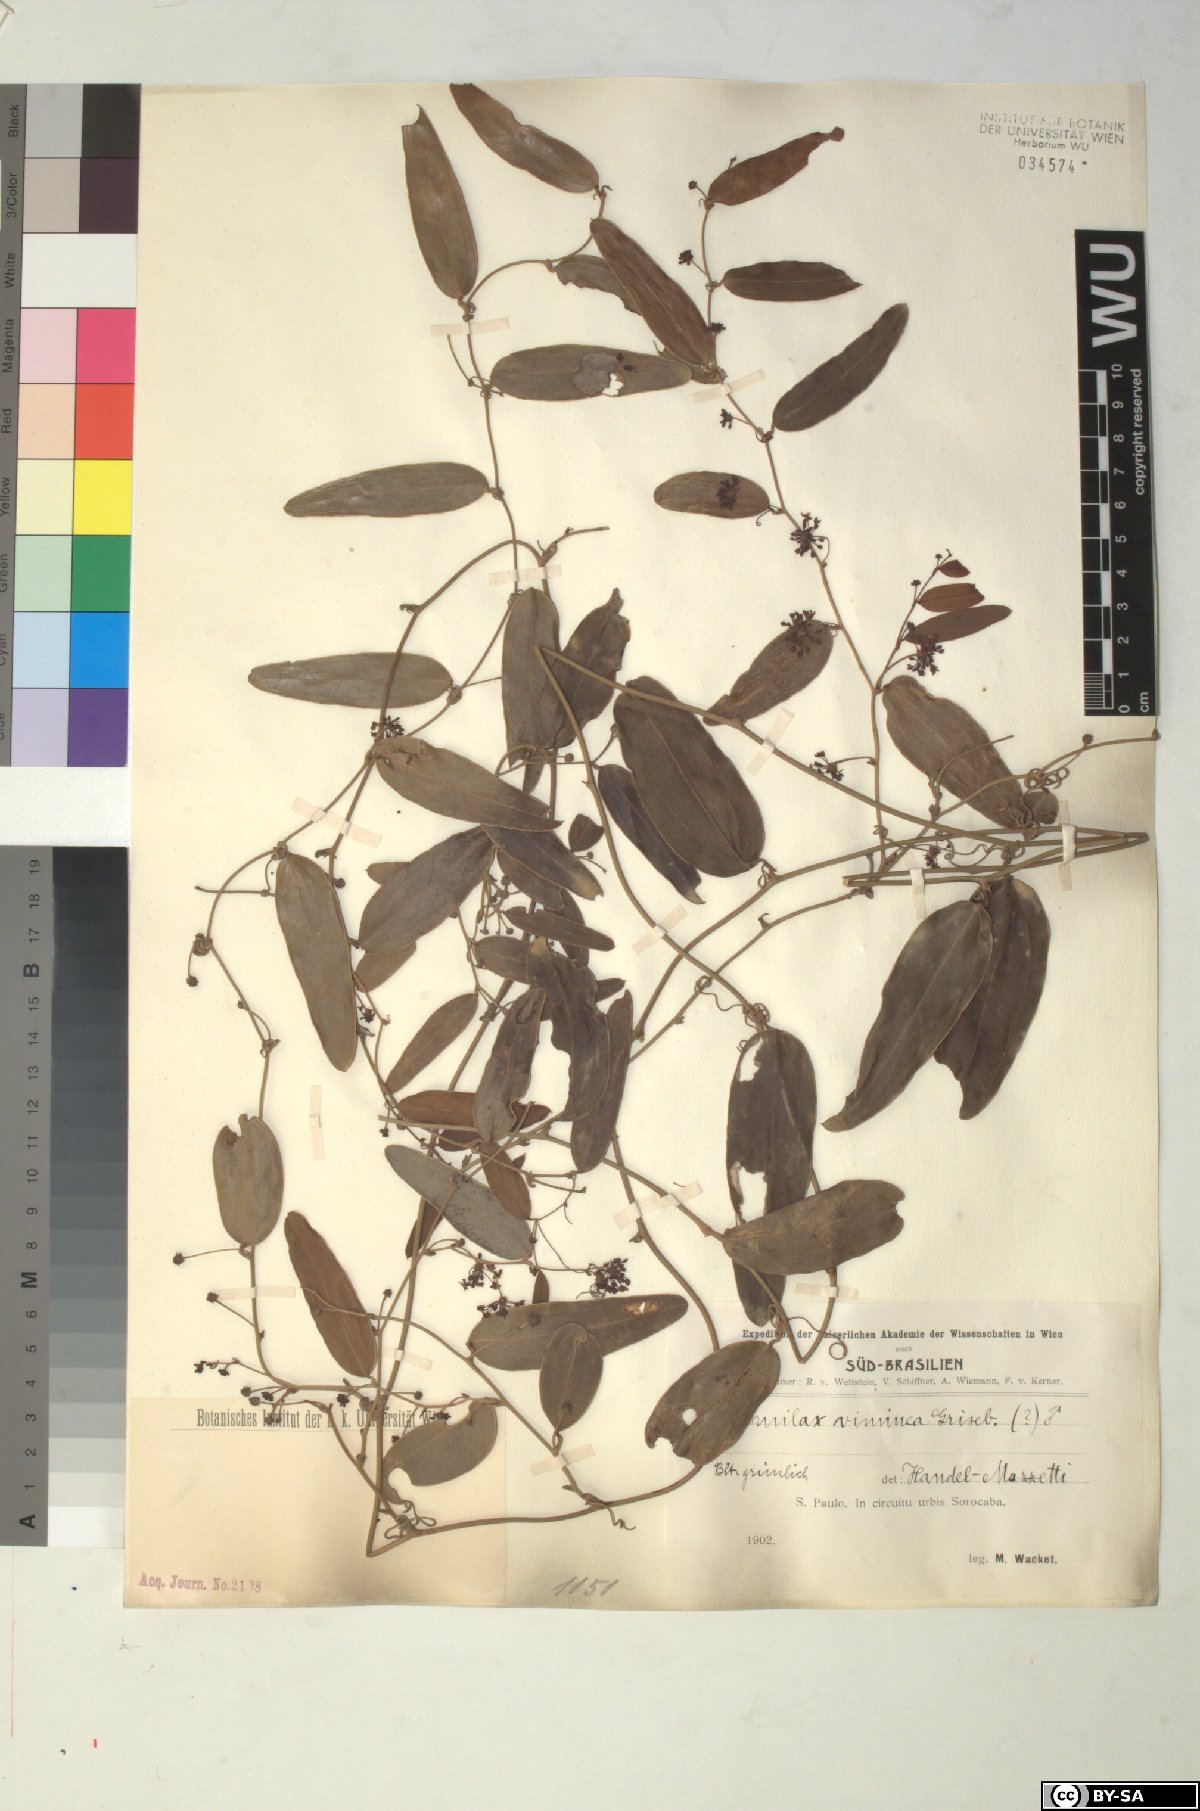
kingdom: Plantae
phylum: Tracheophyta
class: Liliopsida
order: Liliales
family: Smilacaceae
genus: Smilax
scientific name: Smilax campestris
